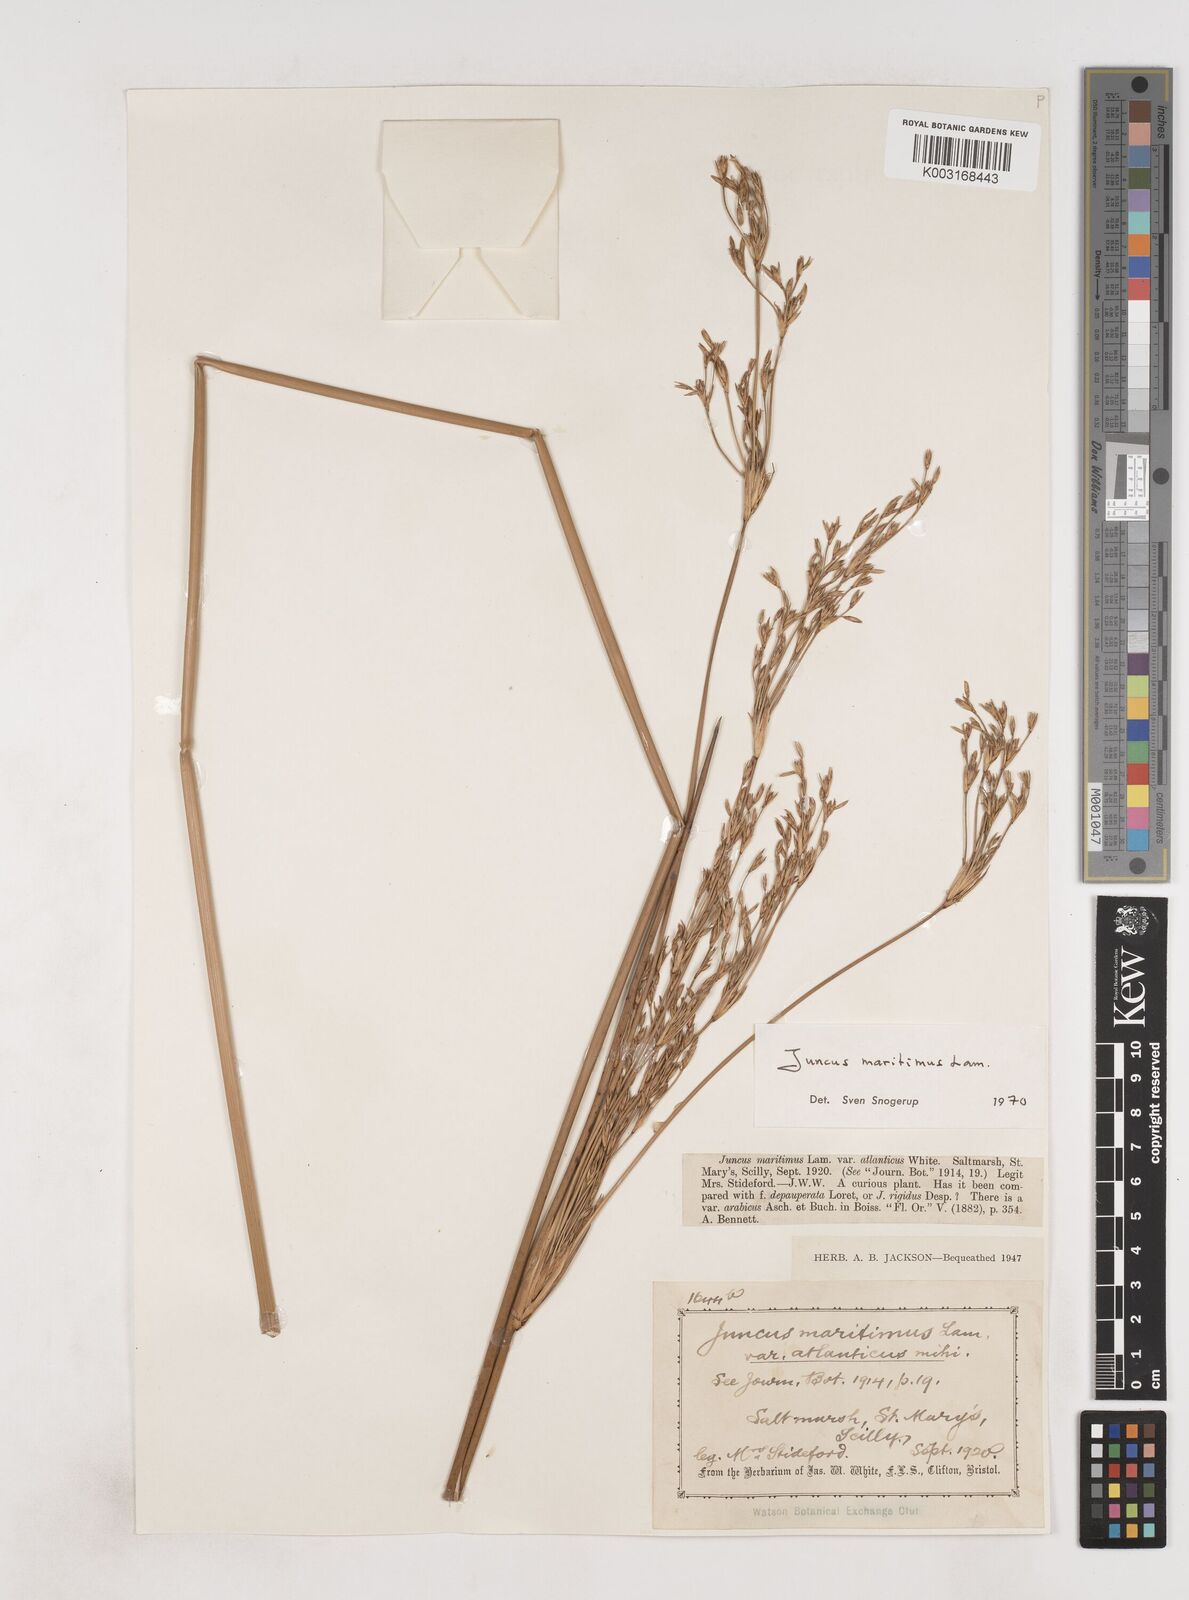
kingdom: Plantae
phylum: Tracheophyta
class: Liliopsida
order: Poales
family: Juncaceae
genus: Juncus
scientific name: Juncus maritimus
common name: Sea rush
